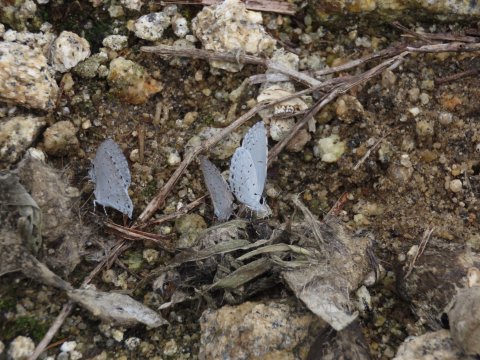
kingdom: Animalia
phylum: Arthropoda
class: Insecta
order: Lepidoptera
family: Lycaenidae
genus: Celastrina
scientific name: Celastrina
